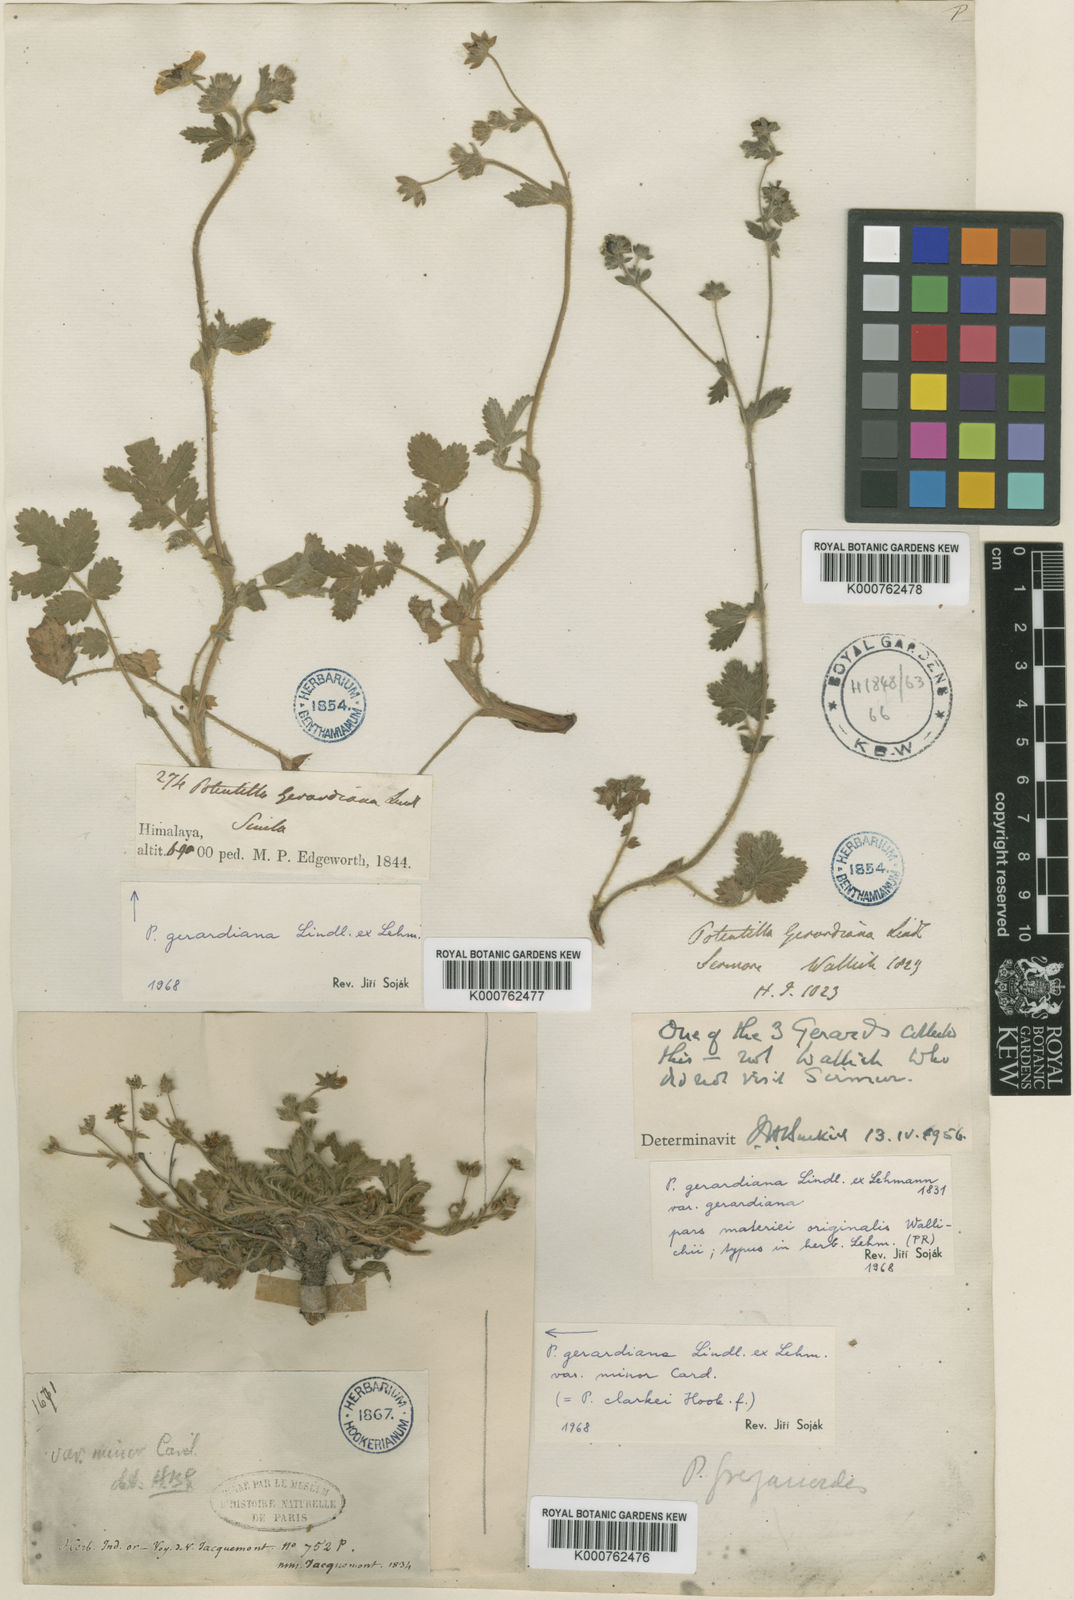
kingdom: Plantae
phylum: Tracheophyta
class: Magnoliopsida
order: Rosales
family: Rosaceae
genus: Potentilla
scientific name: Potentilla
